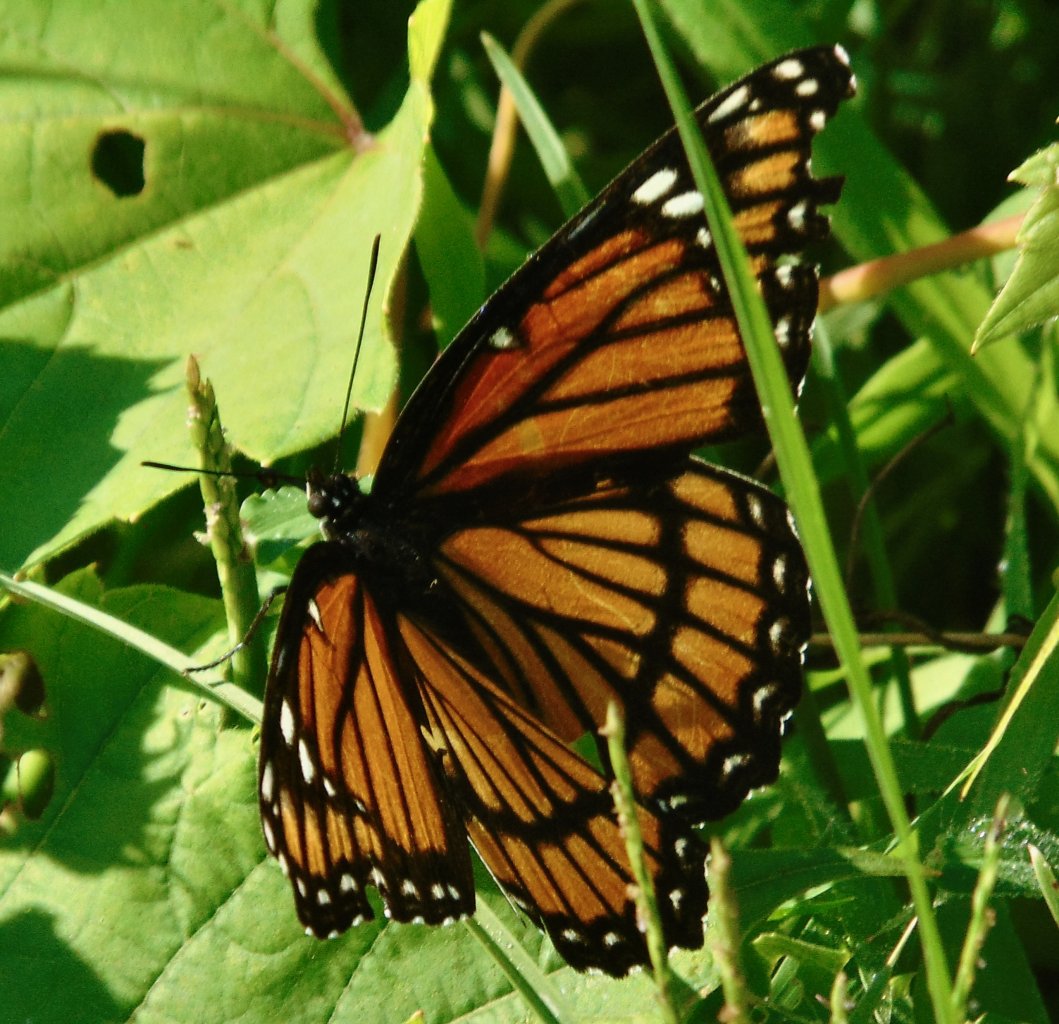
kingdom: Animalia
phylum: Arthropoda
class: Insecta
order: Lepidoptera
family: Nymphalidae
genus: Limenitis
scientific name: Limenitis archippus
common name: Viceroy
